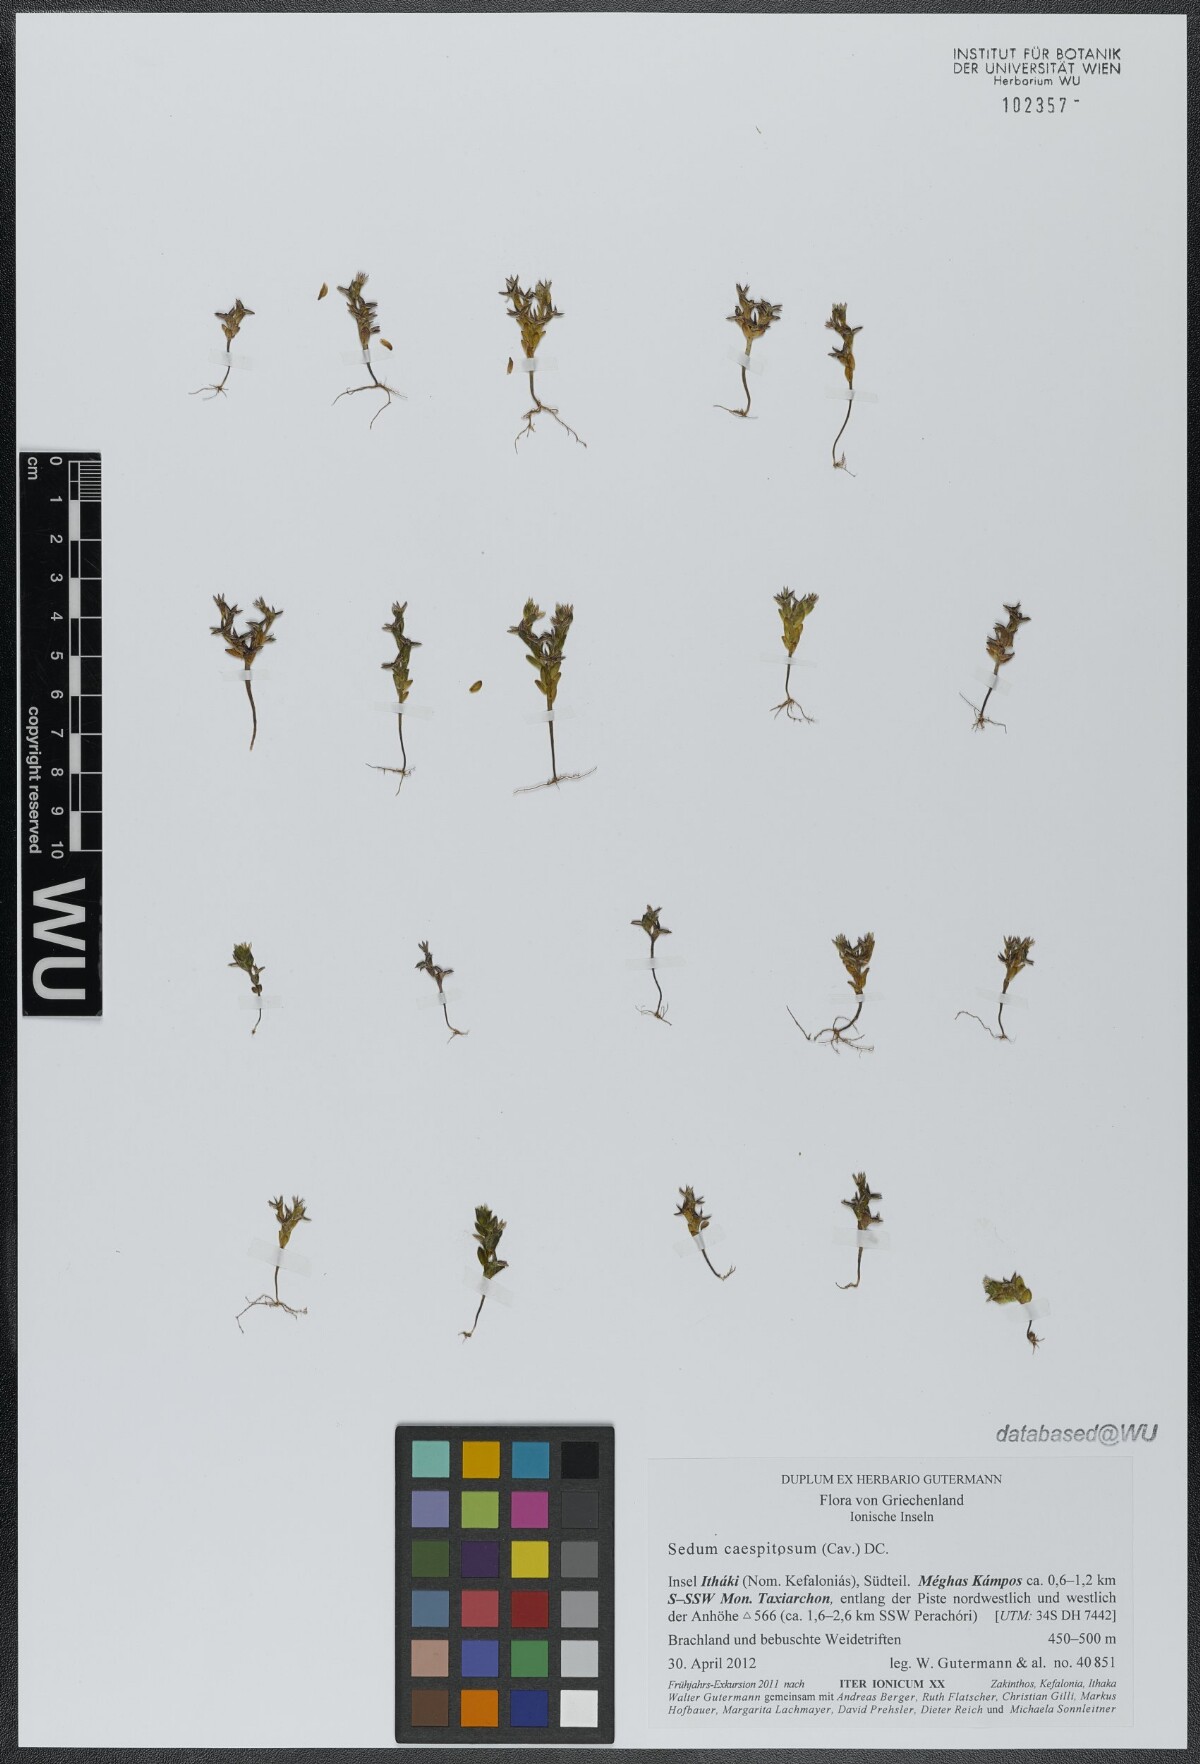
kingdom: Plantae
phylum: Tracheophyta
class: Magnoliopsida
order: Saxifragales
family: Crassulaceae
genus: Sedum
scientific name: Sedum cespitosum
